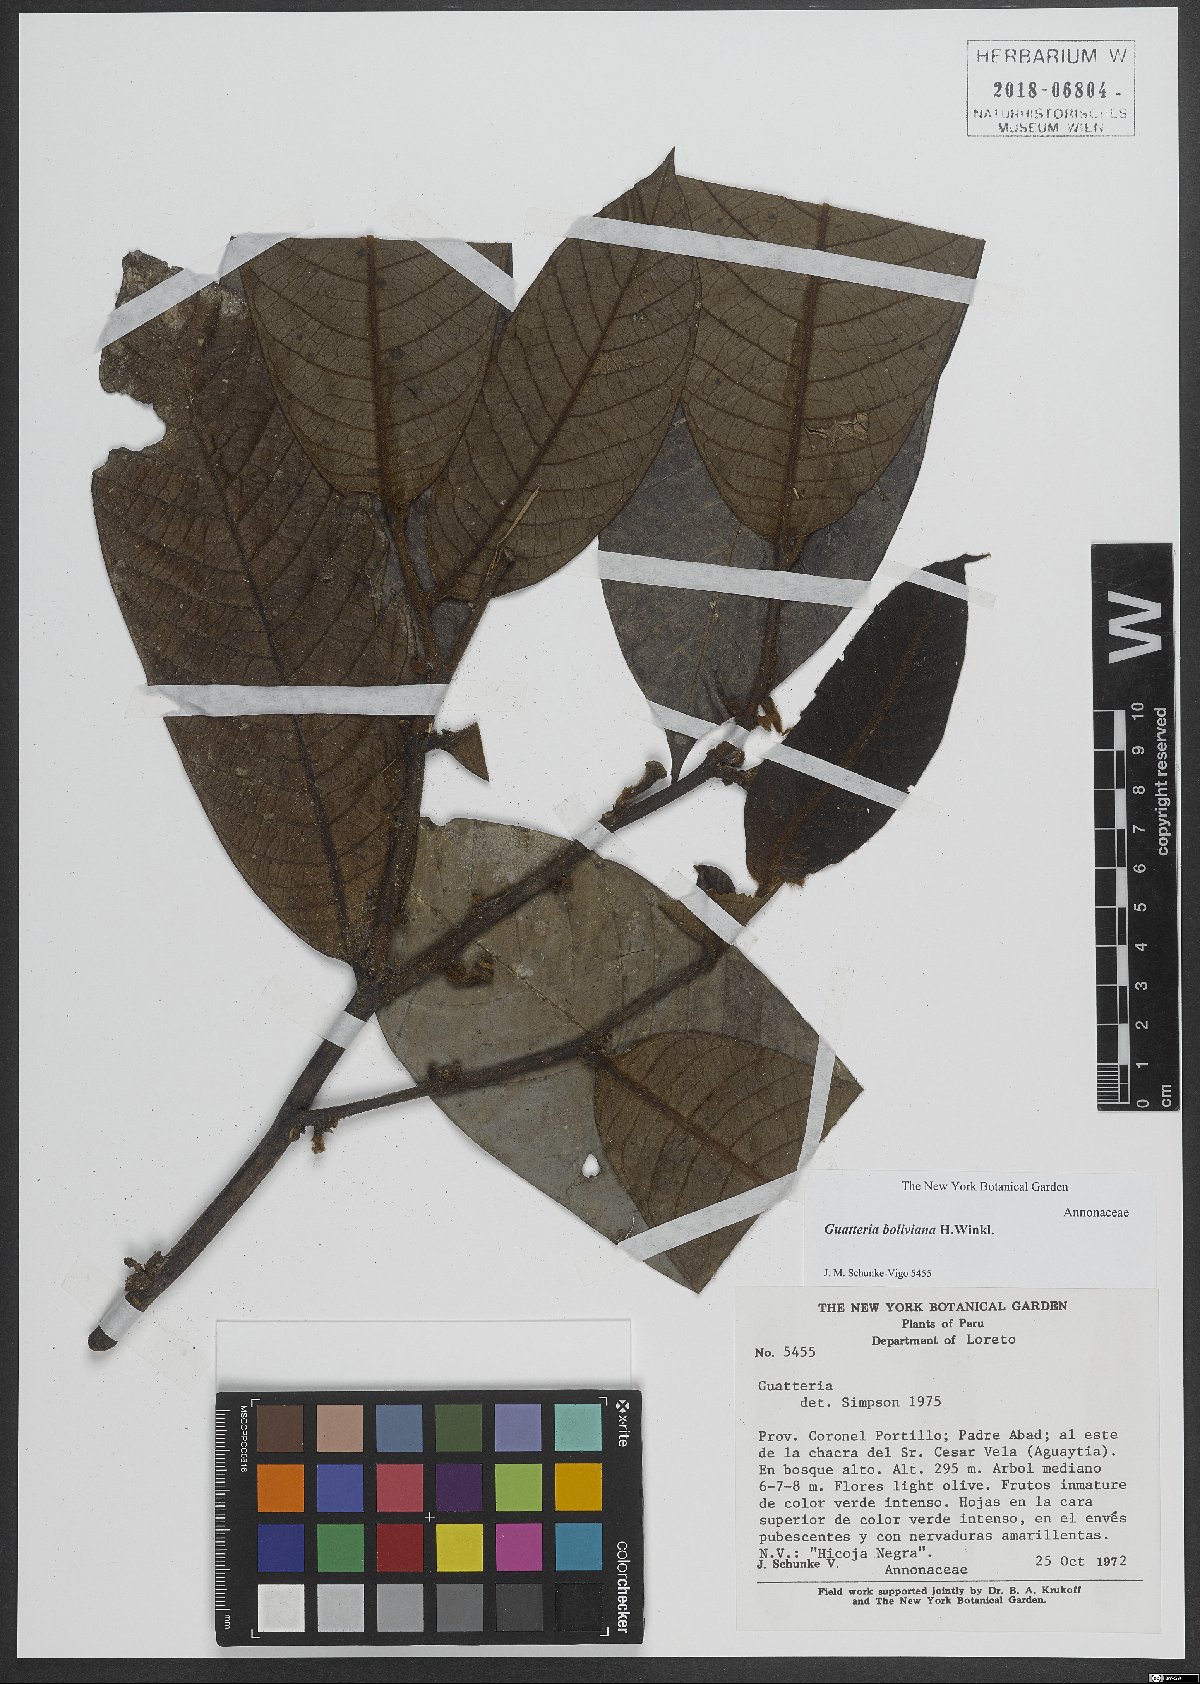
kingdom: Plantae
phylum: Tracheophyta
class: Magnoliopsida
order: Magnoliales
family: Annonaceae
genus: Guatteria
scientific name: Guatteria boliviana
